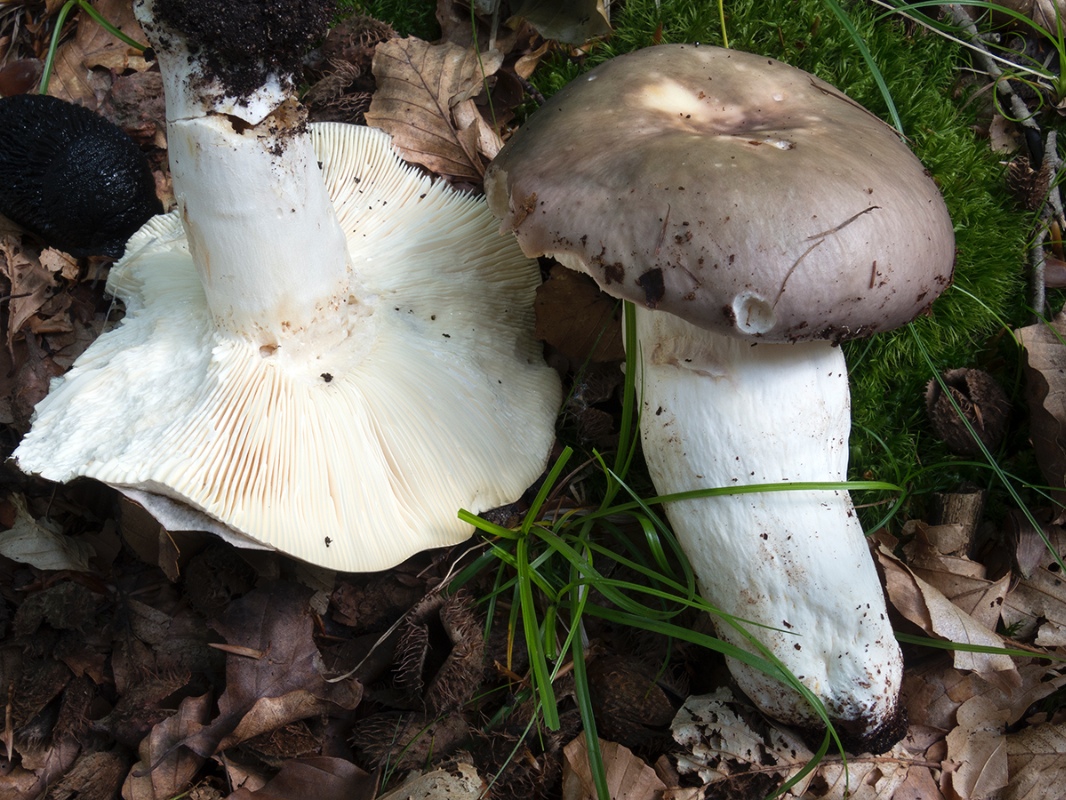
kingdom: Fungi
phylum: Basidiomycota
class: Agaricomycetes
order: Russulales
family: Russulaceae
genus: Russula
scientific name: Russula cyanoxantha
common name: broget skørhat
